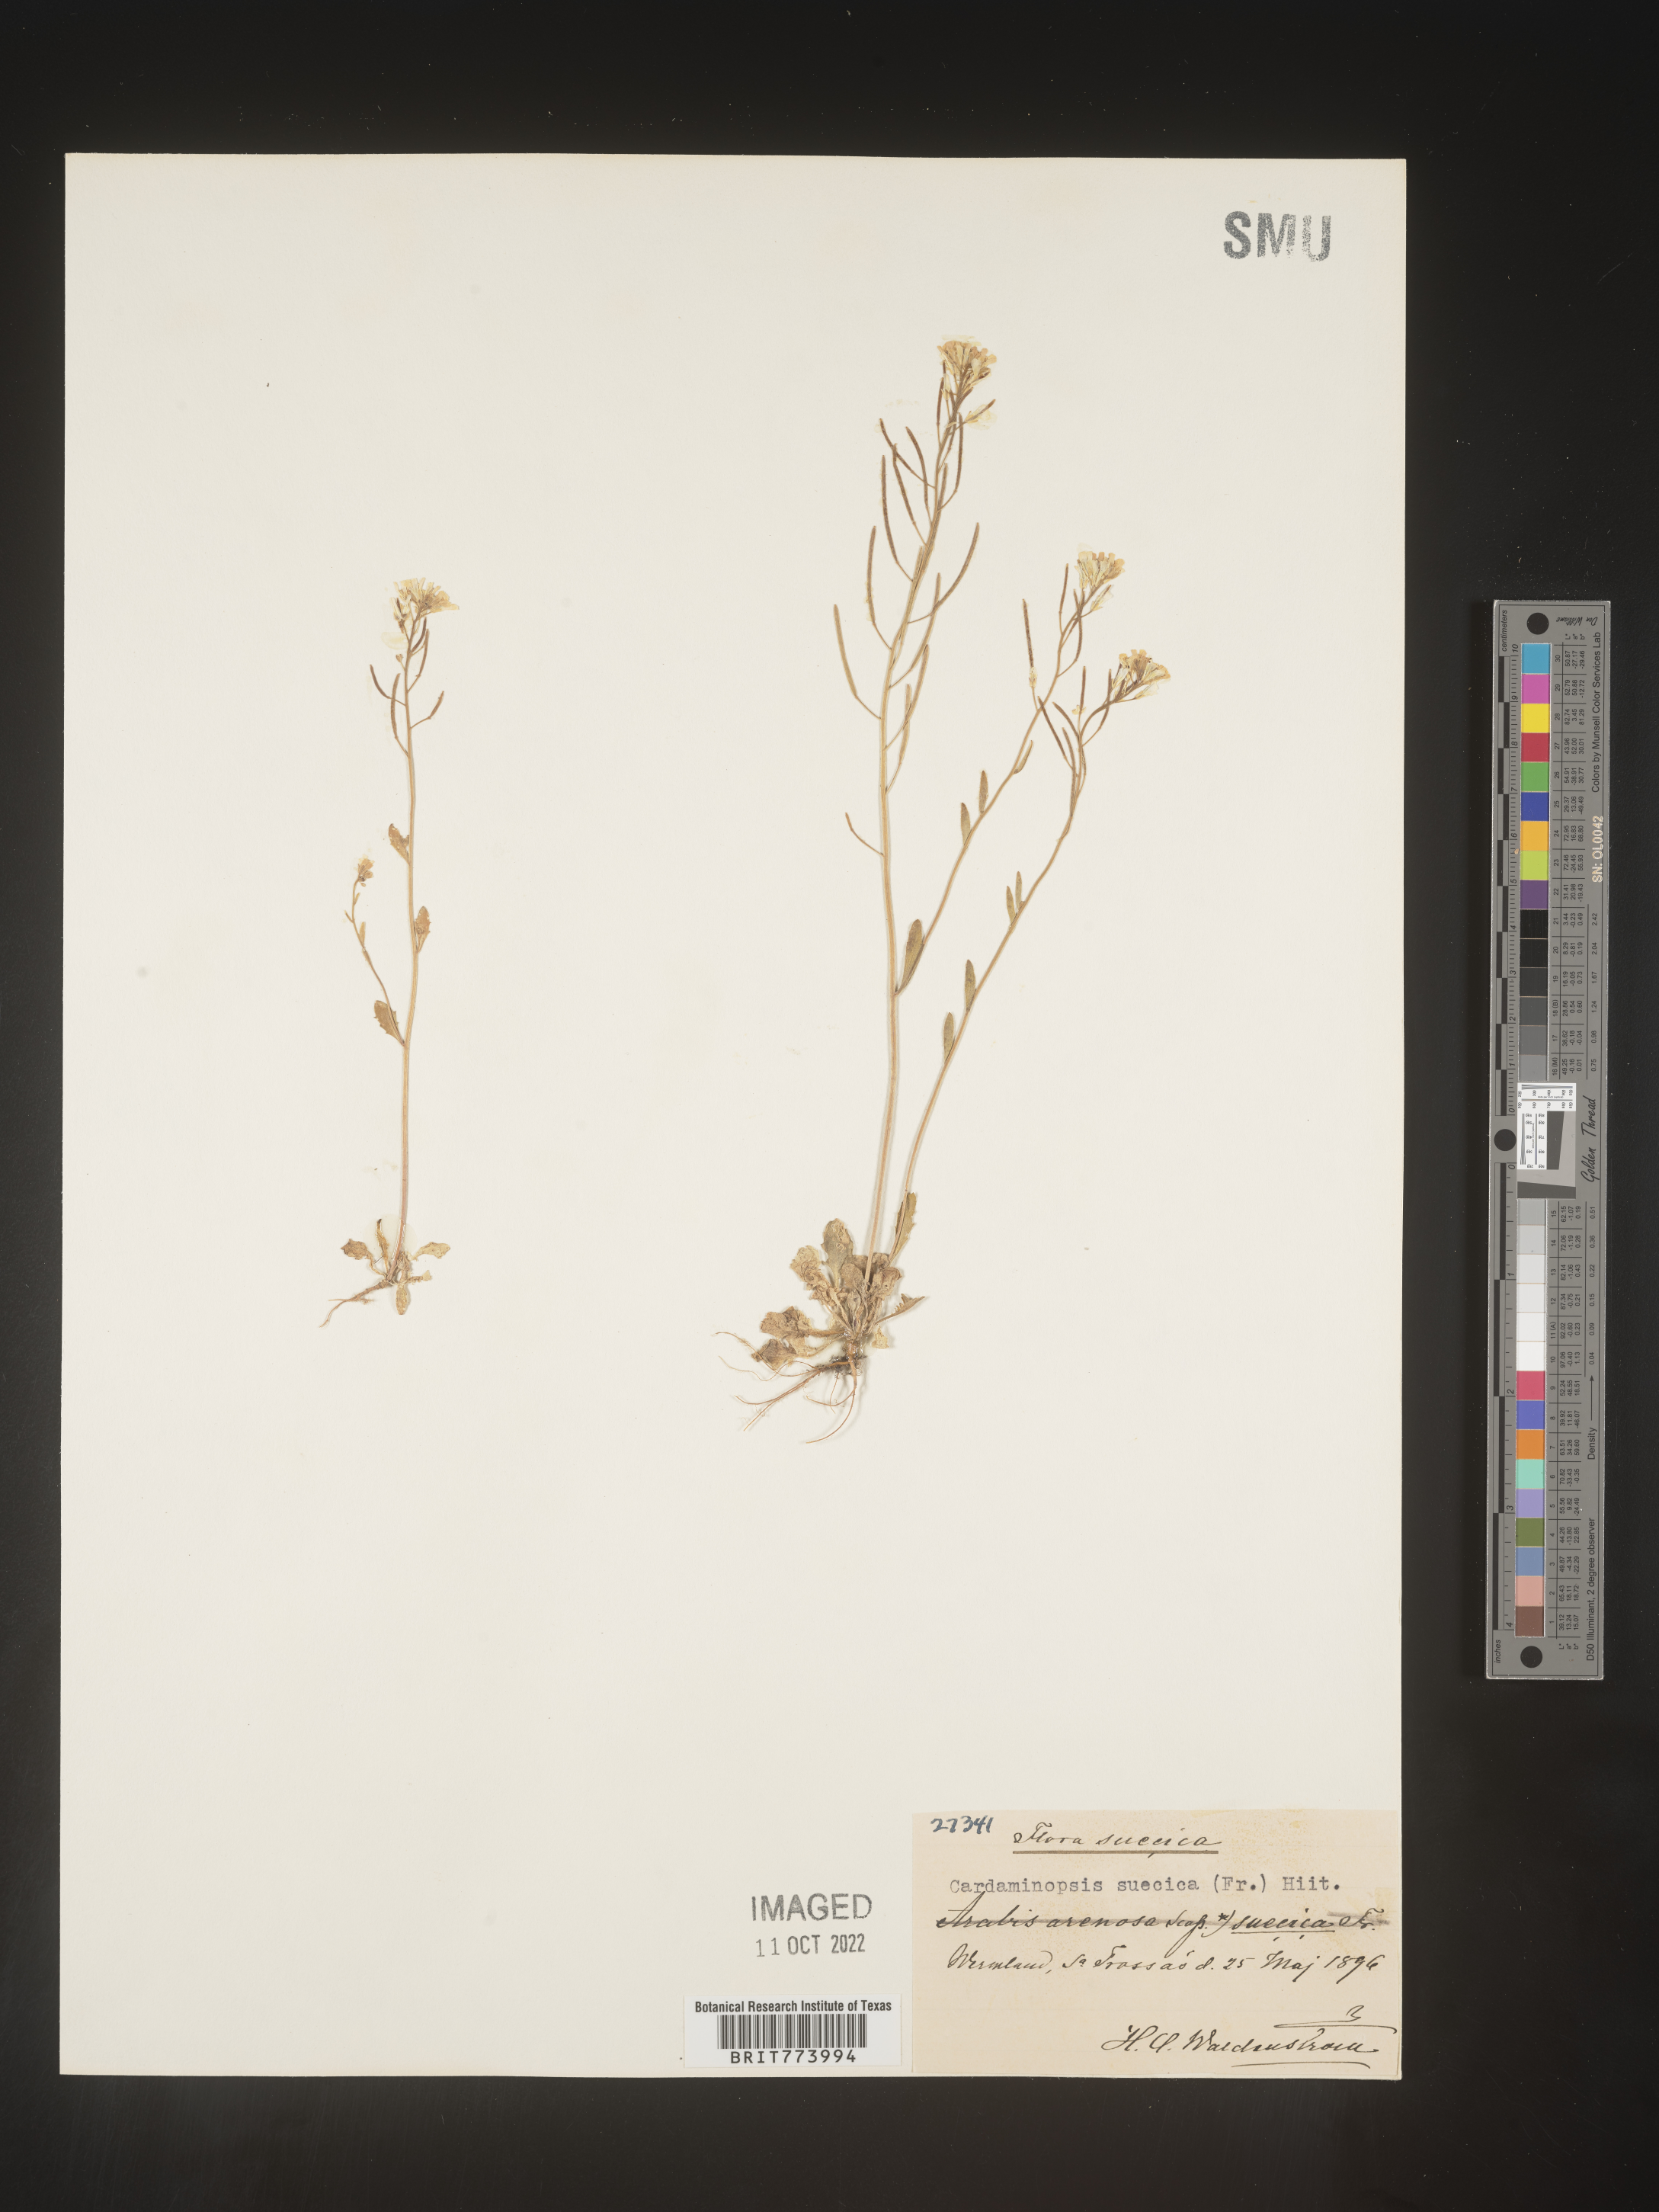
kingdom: Plantae
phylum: Tracheophyta
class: Magnoliopsida
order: Brassicales
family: Brassicaceae
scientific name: Brassicaceae
